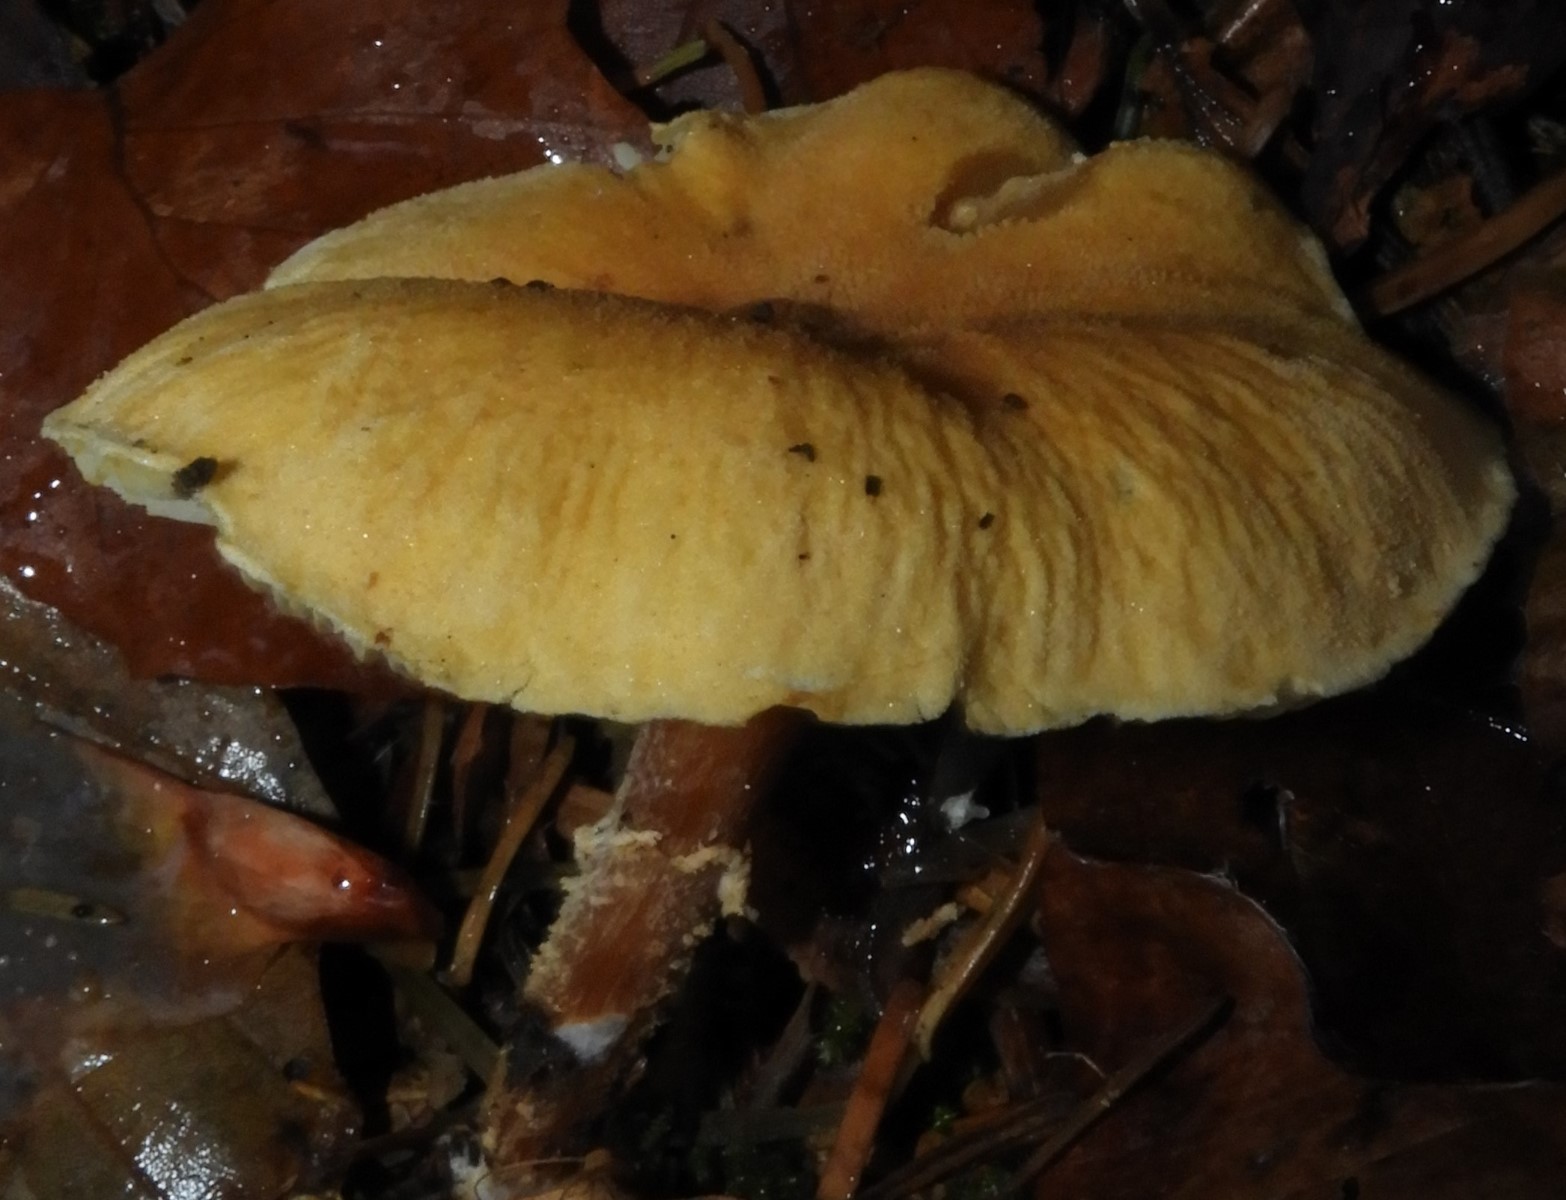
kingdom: Fungi
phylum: Basidiomycota
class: Agaricomycetes
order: Agaricales
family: Tricholomataceae
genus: Cystoderma
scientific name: Cystoderma amianthinum
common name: okkergul grynhat
